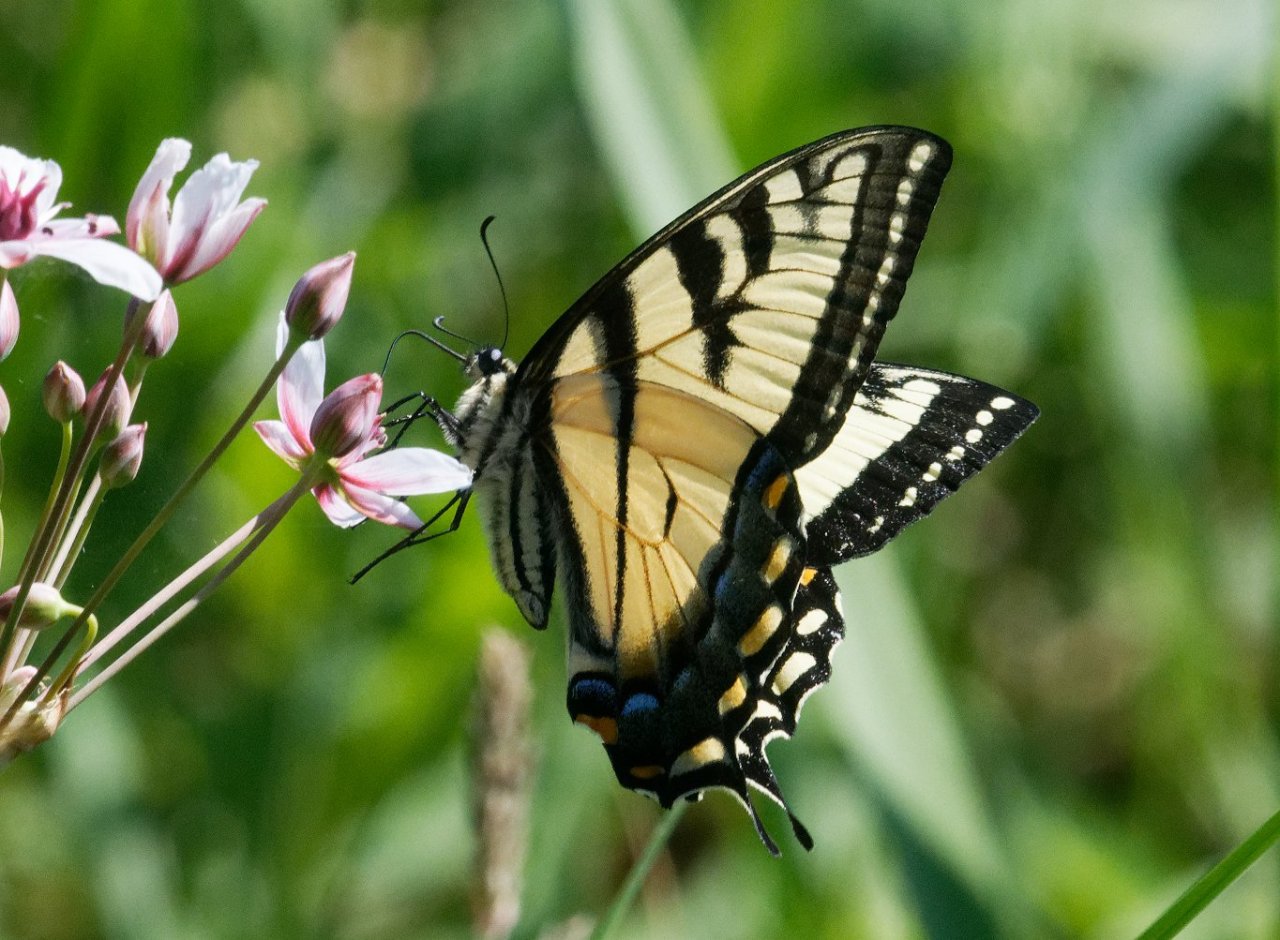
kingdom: Animalia
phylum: Arthropoda
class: Insecta
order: Lepidoptera
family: Papilionidae
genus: Pterourus
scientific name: Pterourus
